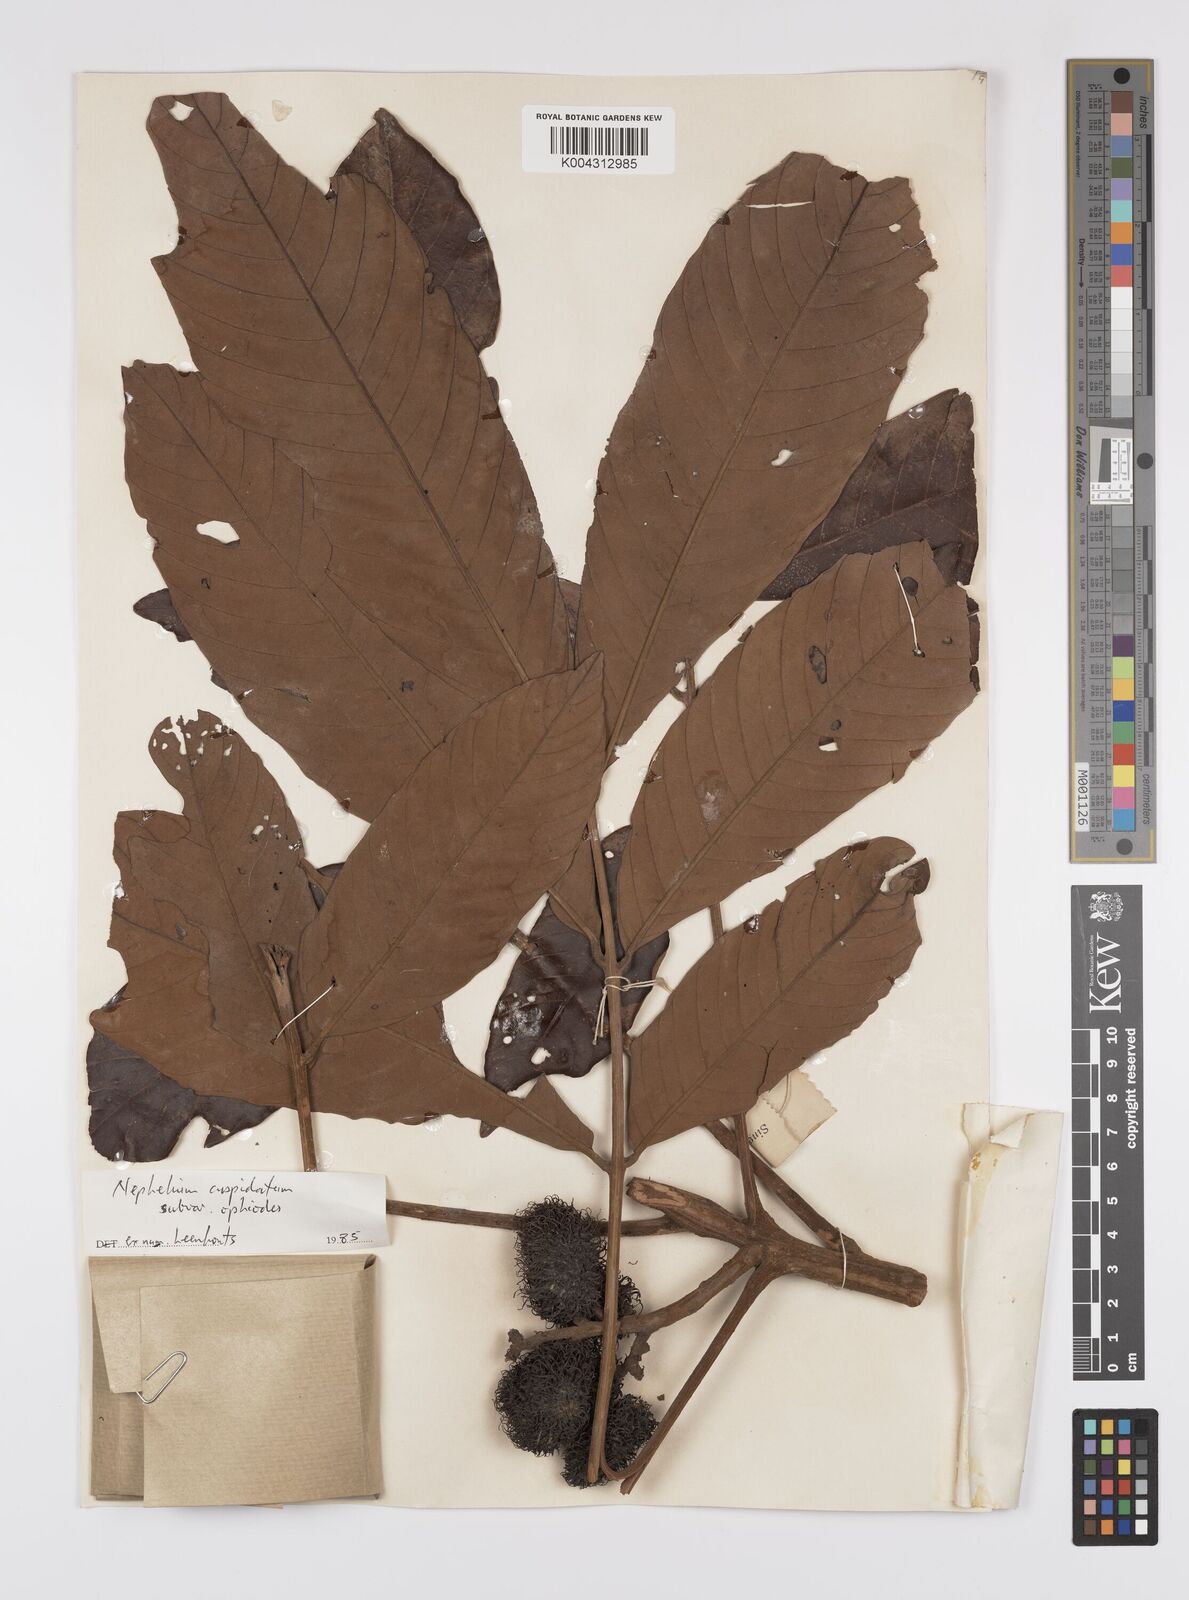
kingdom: Plantae
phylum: Tracheophyta
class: Magnoliopsida
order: Sapindales
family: Sapindaceae
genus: Nephelium
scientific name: Nephelium cuspidatum
